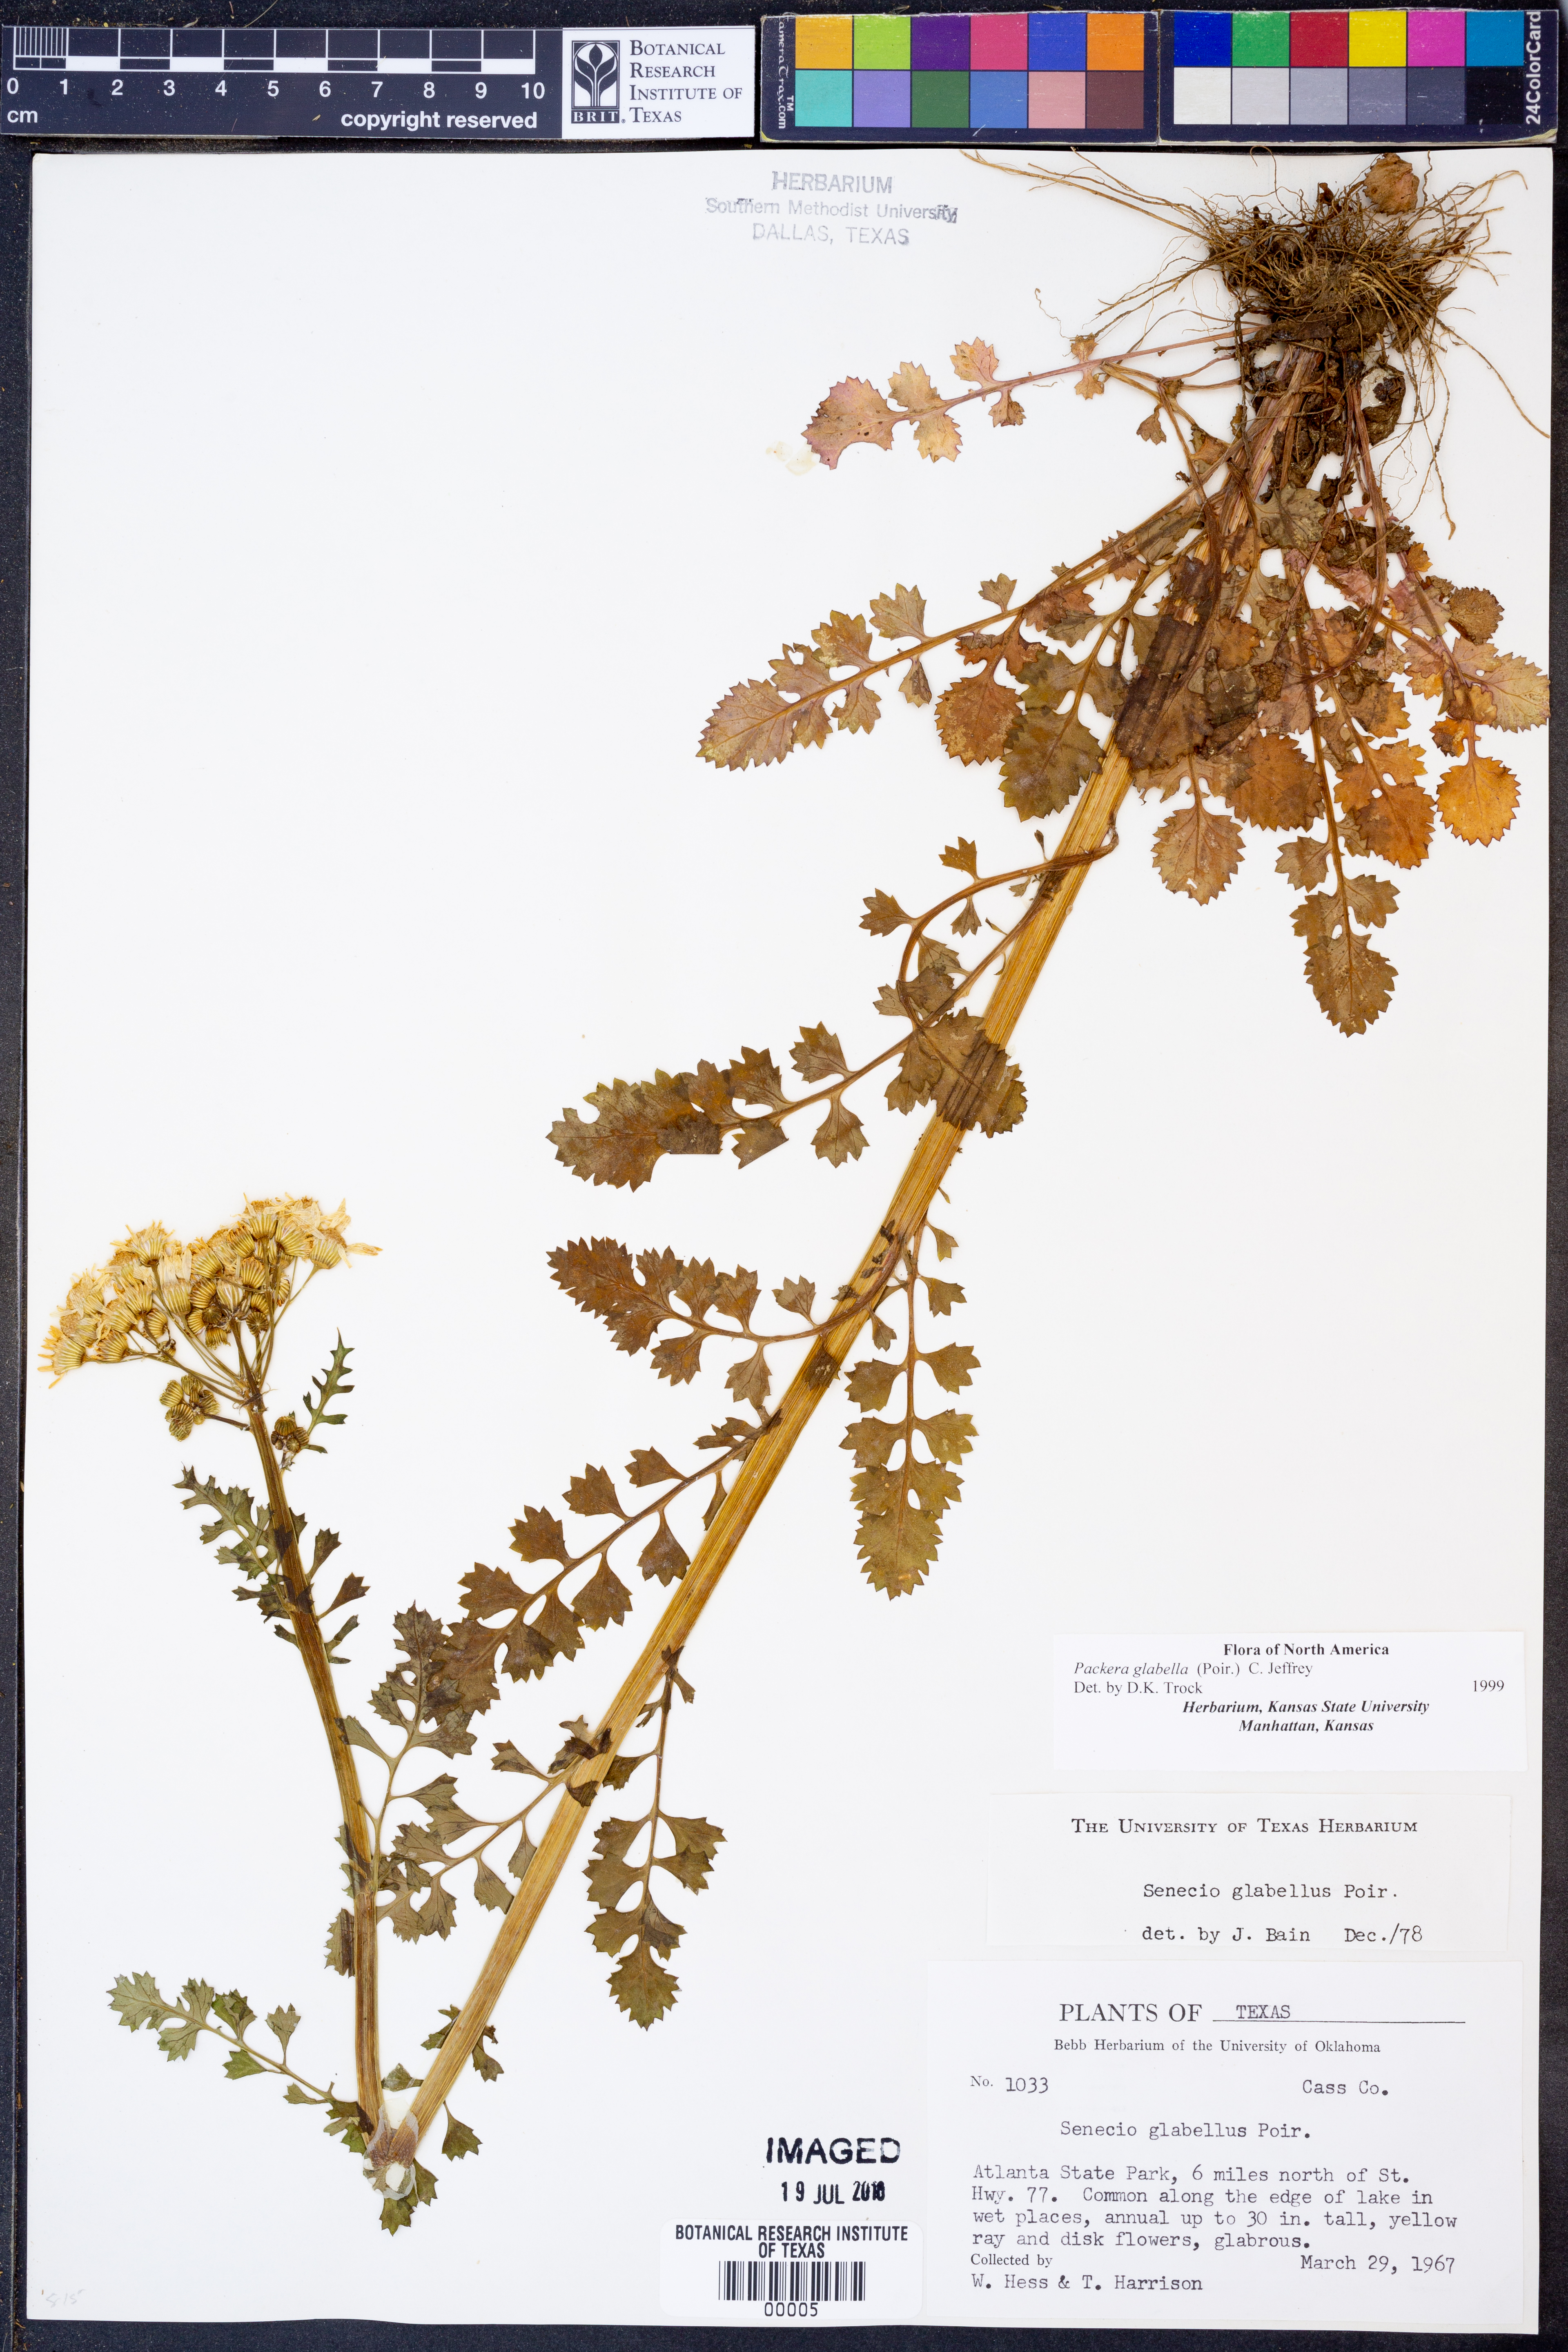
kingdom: Plantae
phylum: Tracheophyta
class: Magnoliopsida
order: Asterales
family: Asteraceae
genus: Tephroseris
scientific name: Tephroseris praticola
